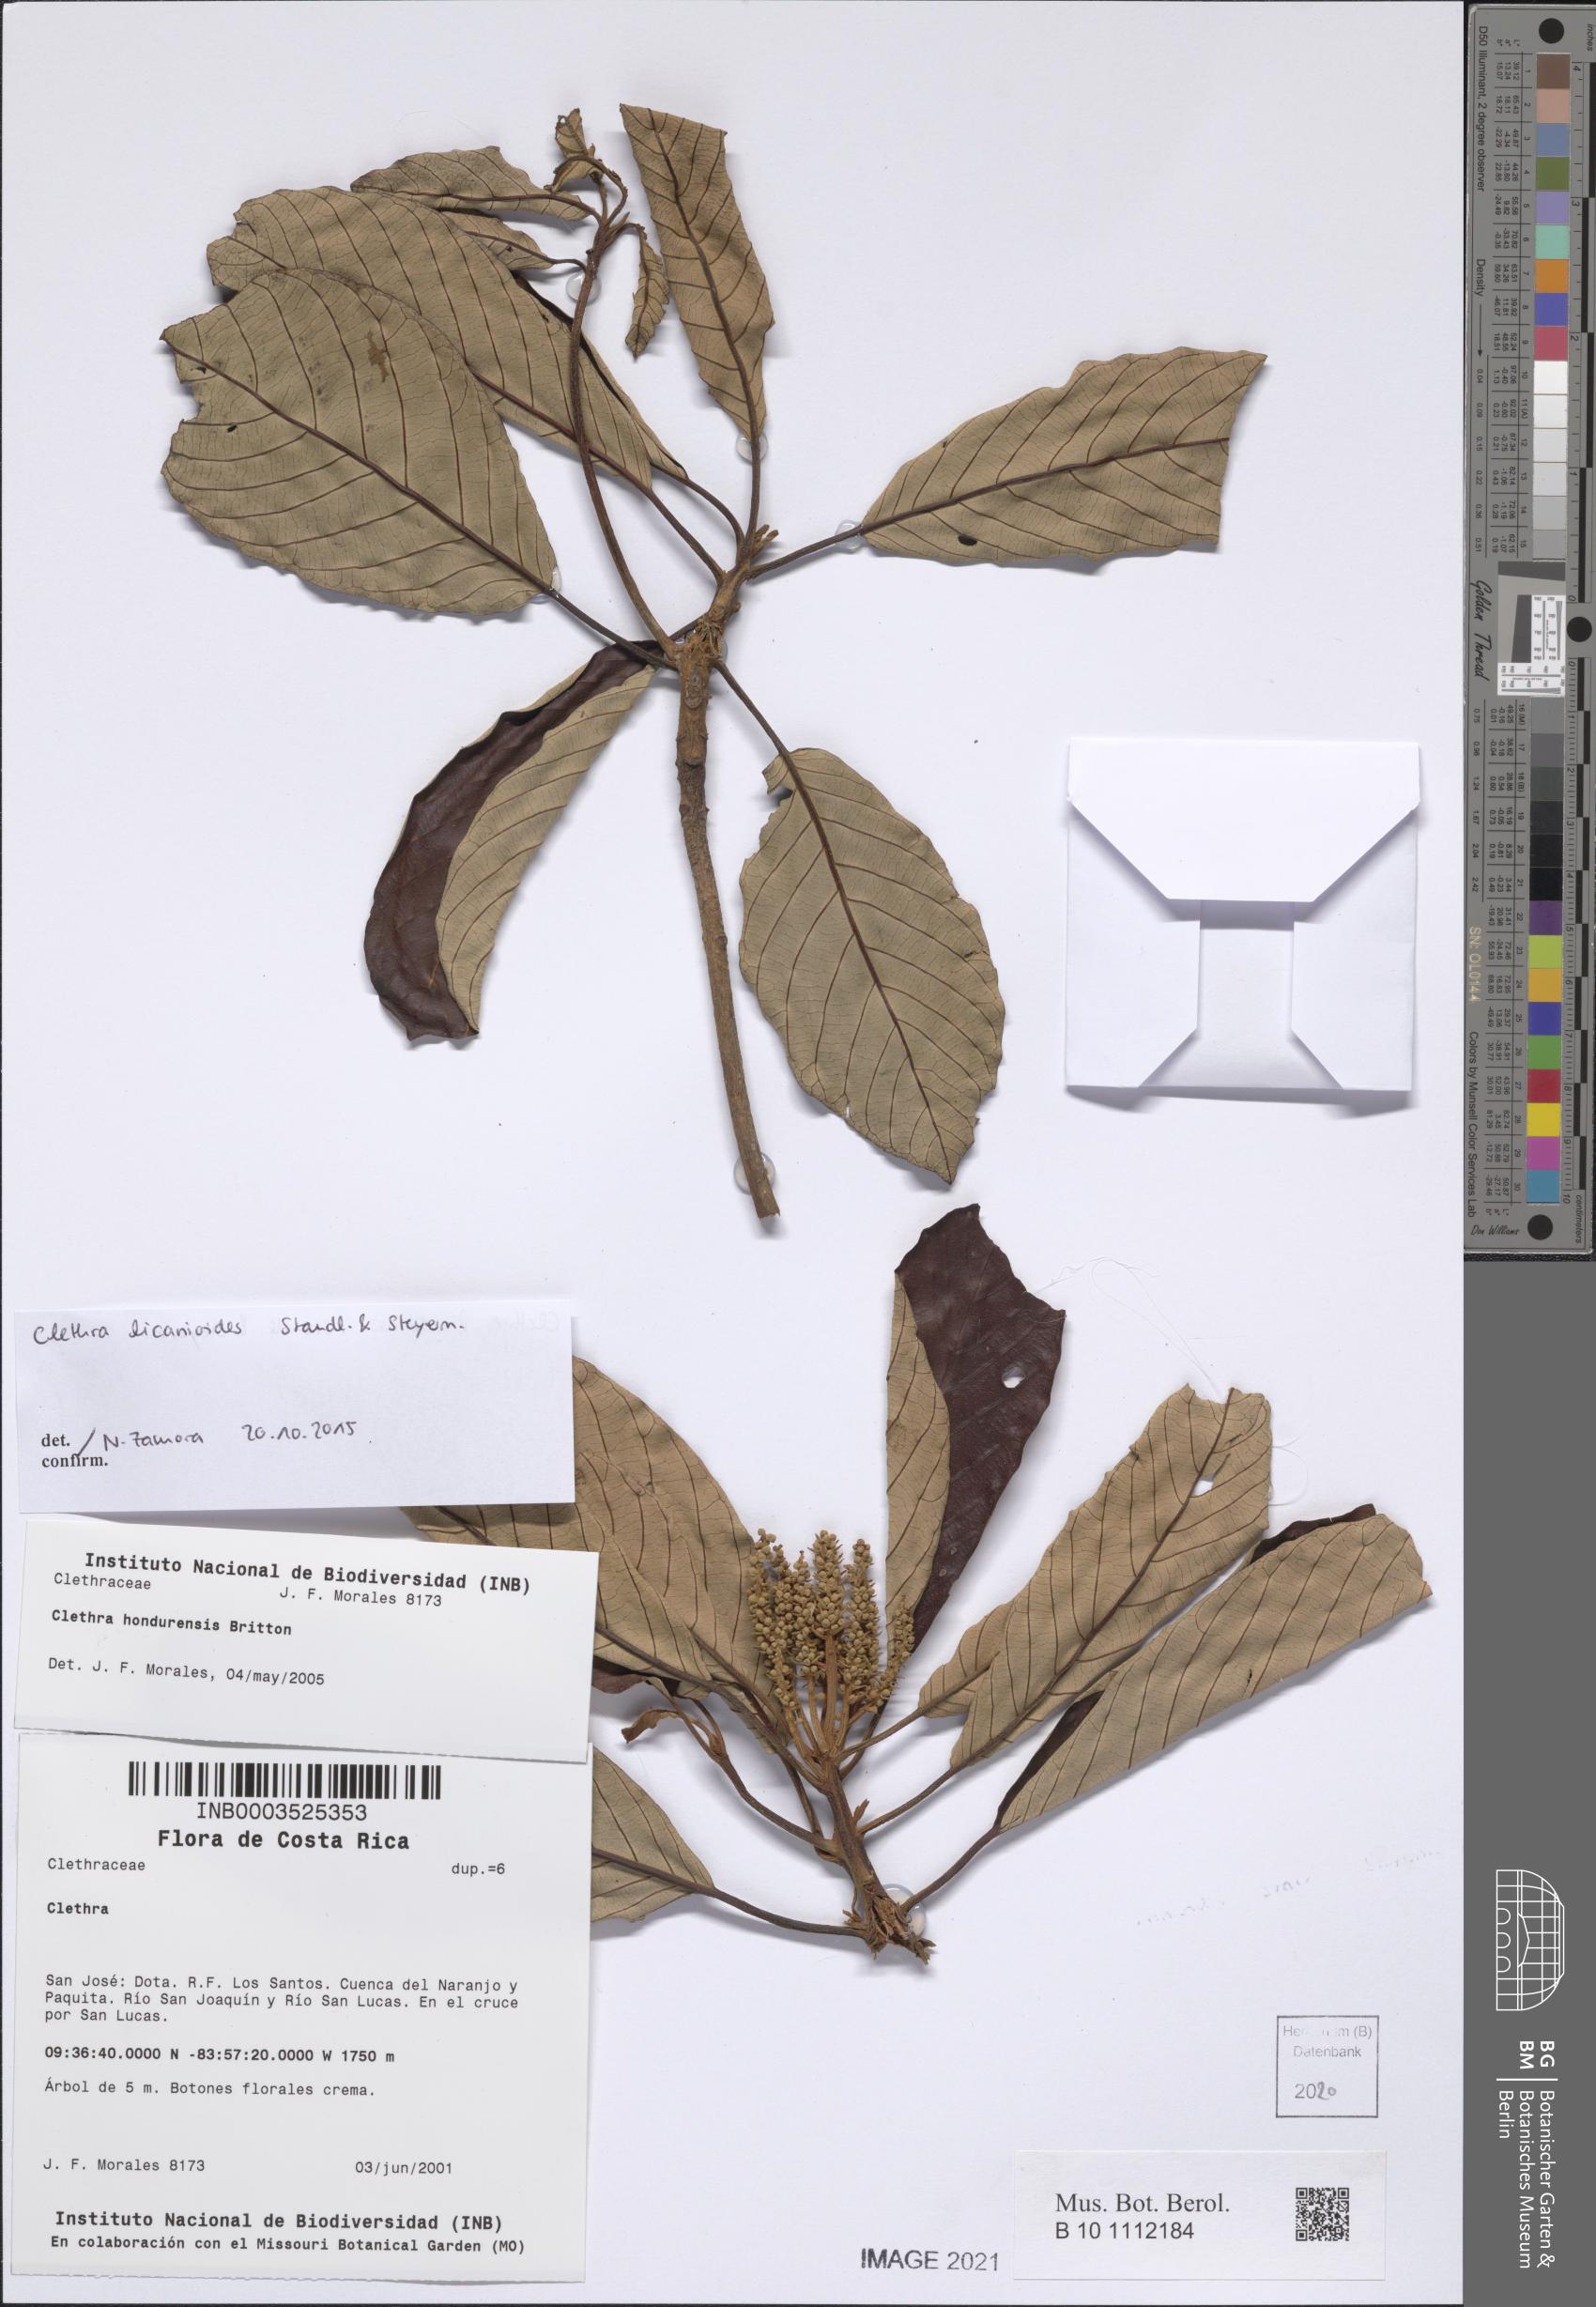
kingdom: Plantae
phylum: Tracheophyta
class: Magnoliopsida
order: Ericales
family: Clethraceae
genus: Clethra
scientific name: Clethra licanioides
